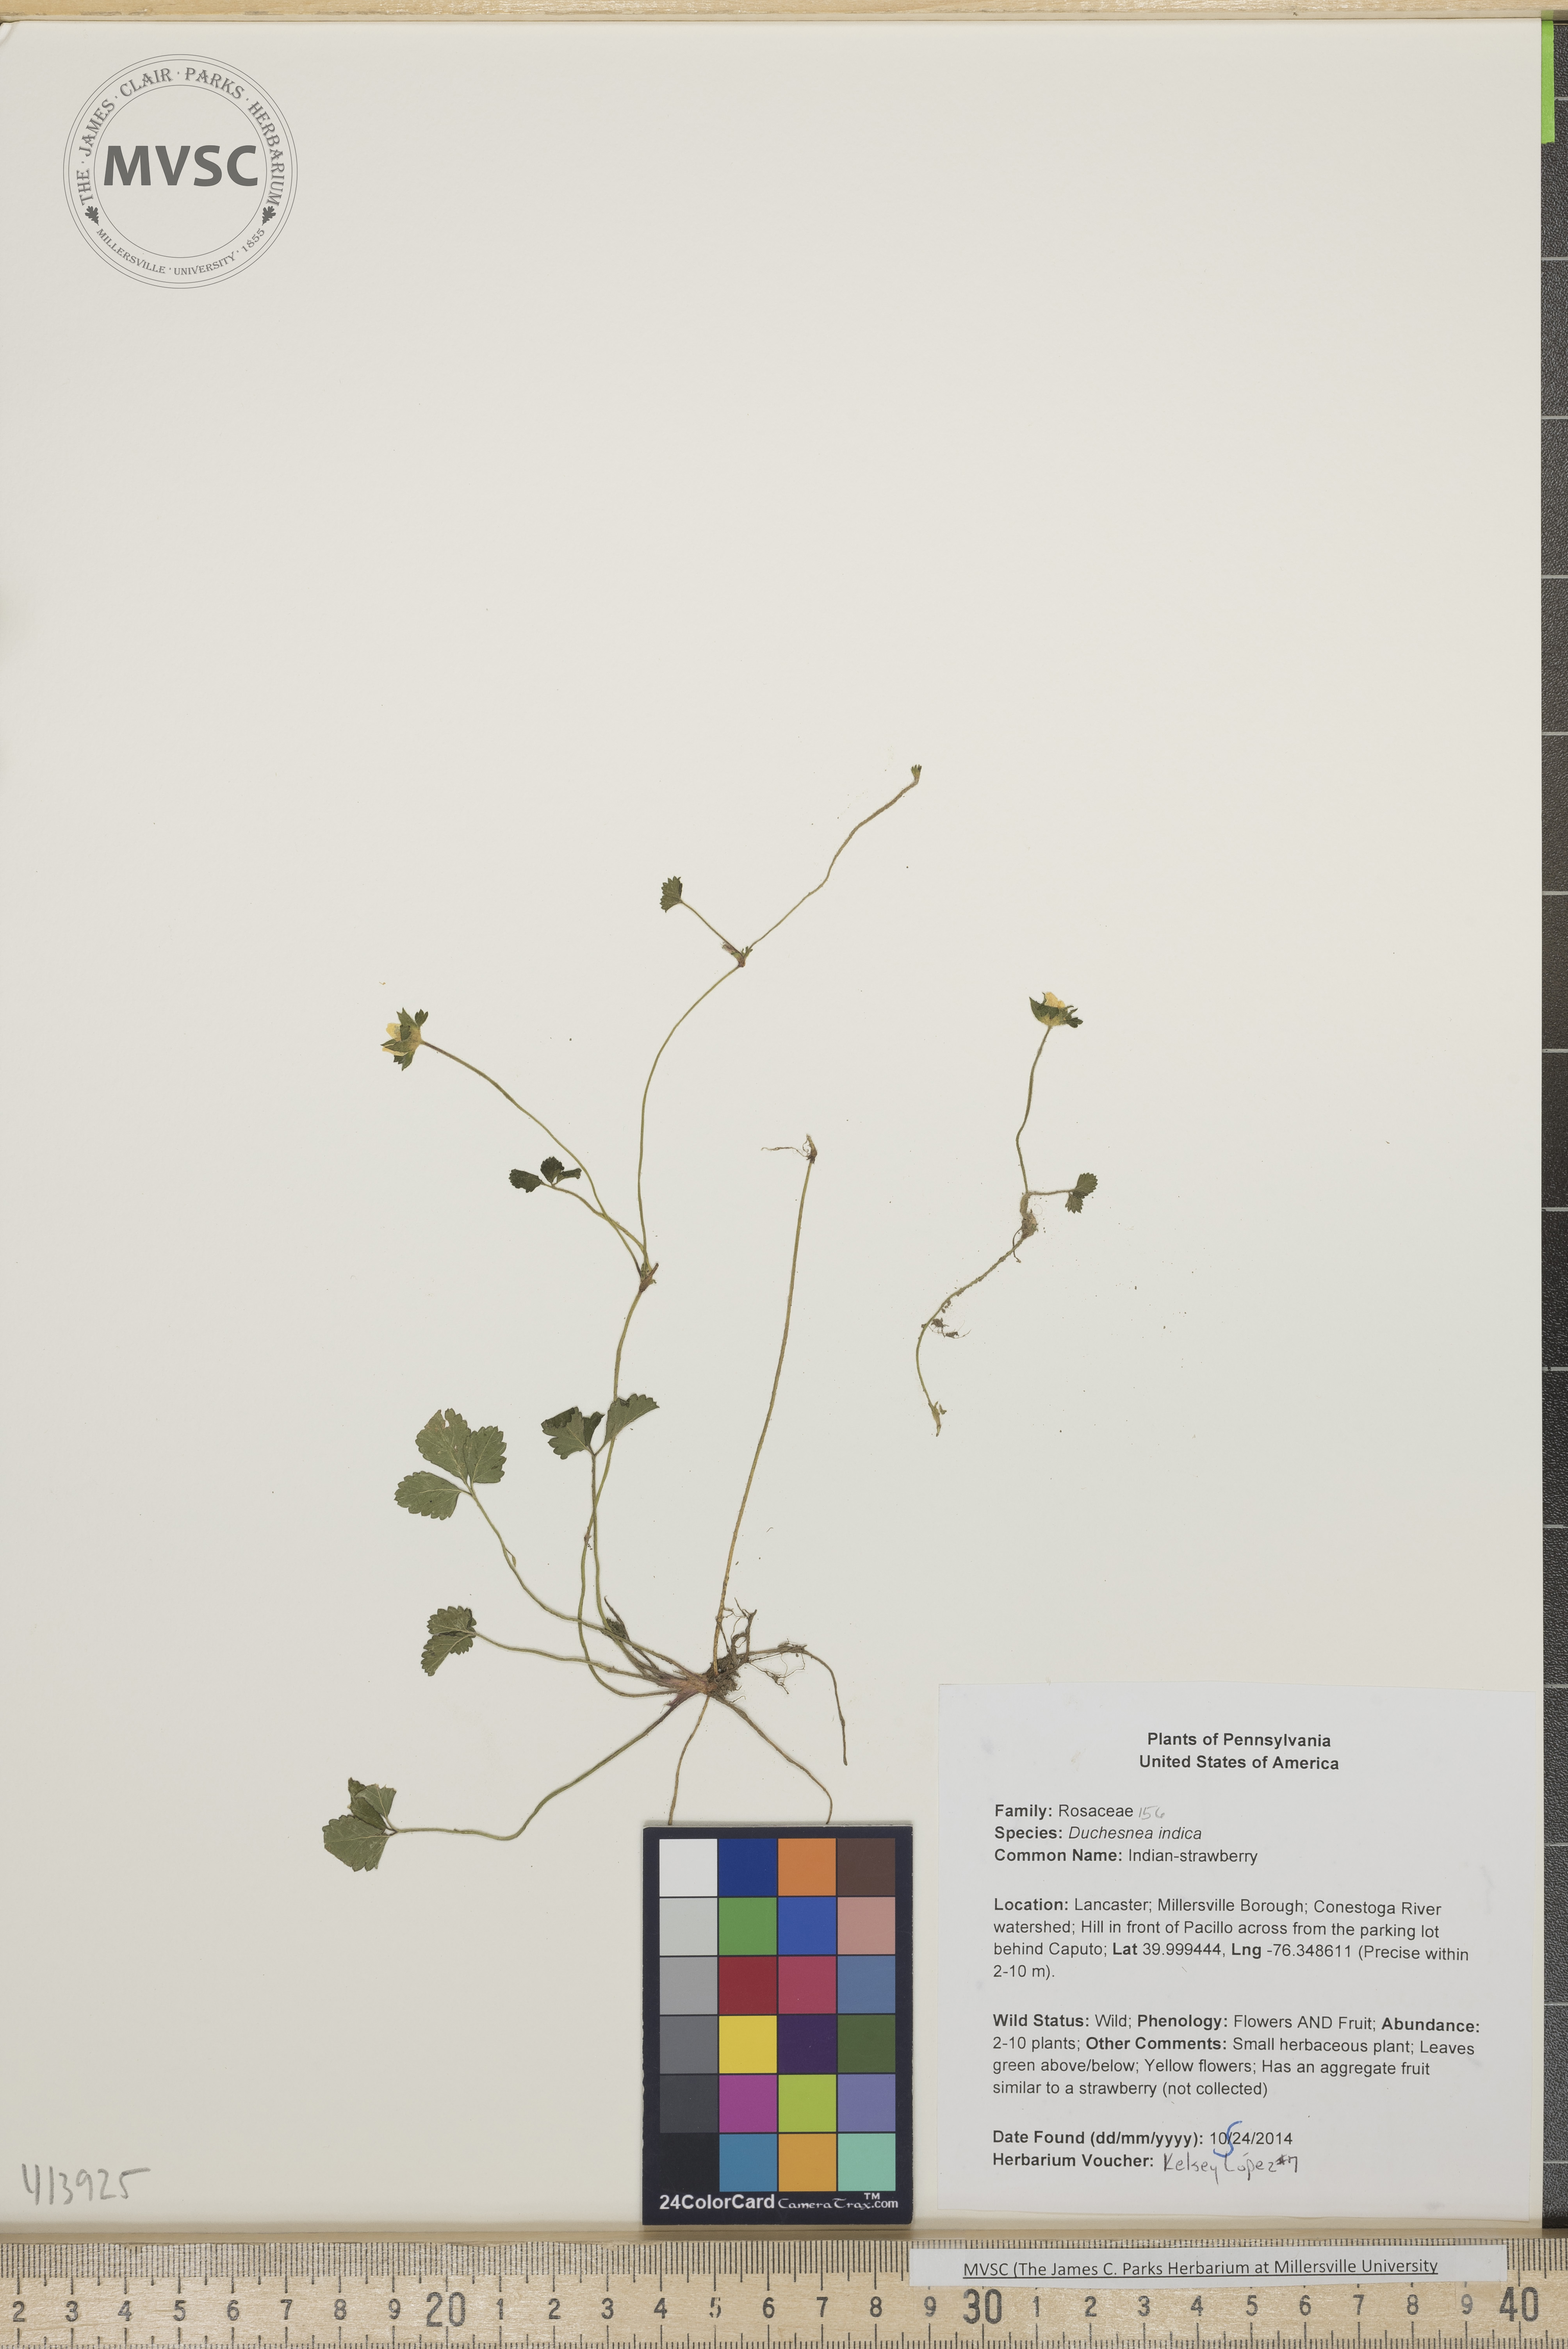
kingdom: Plantae
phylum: Tracheophyta
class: Magnoliopsida
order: Rosales
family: Rosaceae
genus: Potentilla
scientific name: Potentilla indica
